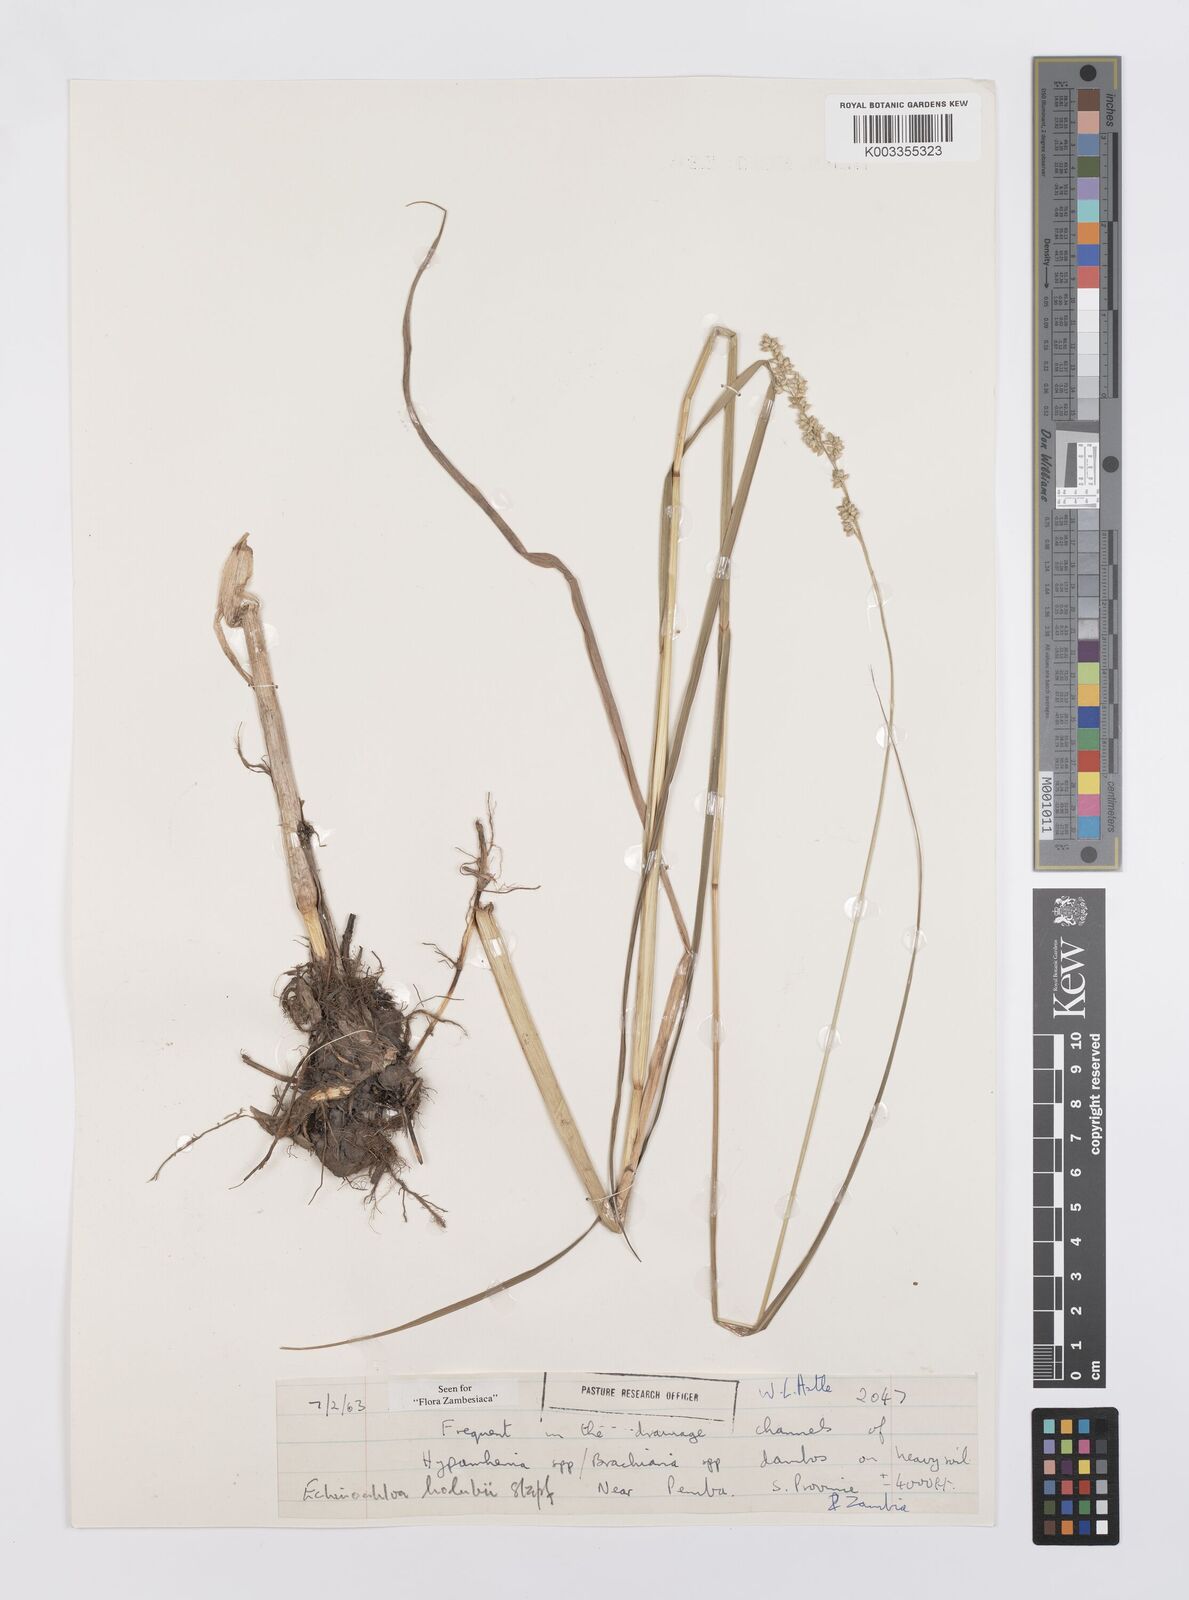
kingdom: Plantae
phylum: Tracheophyta
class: Liliopsida
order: Poales
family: Poaceae
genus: Echinochloa
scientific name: Echinochloa pyramidalis
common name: Antelope grass
